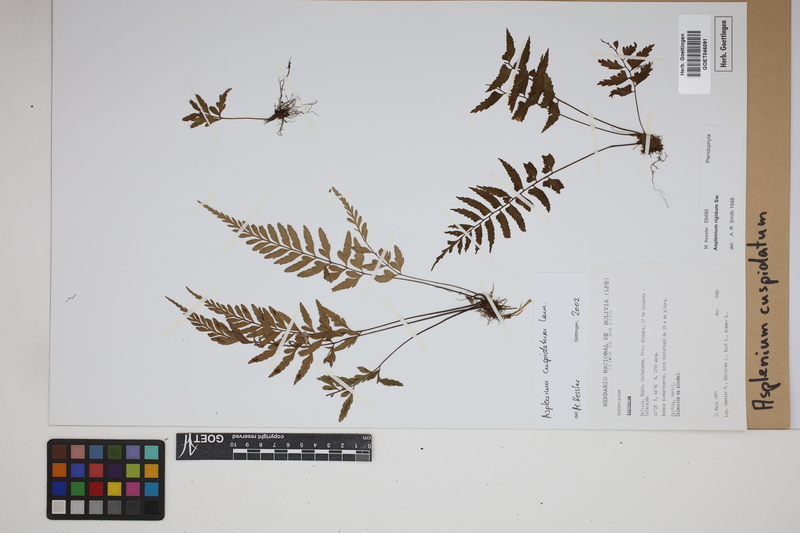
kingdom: Plantae
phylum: Tracheophyta
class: Polypodiopsida
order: Polypodiales
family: Aspleniaceae
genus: Asplenium
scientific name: Asplenium cuspidatum
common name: Eared spleenwort
